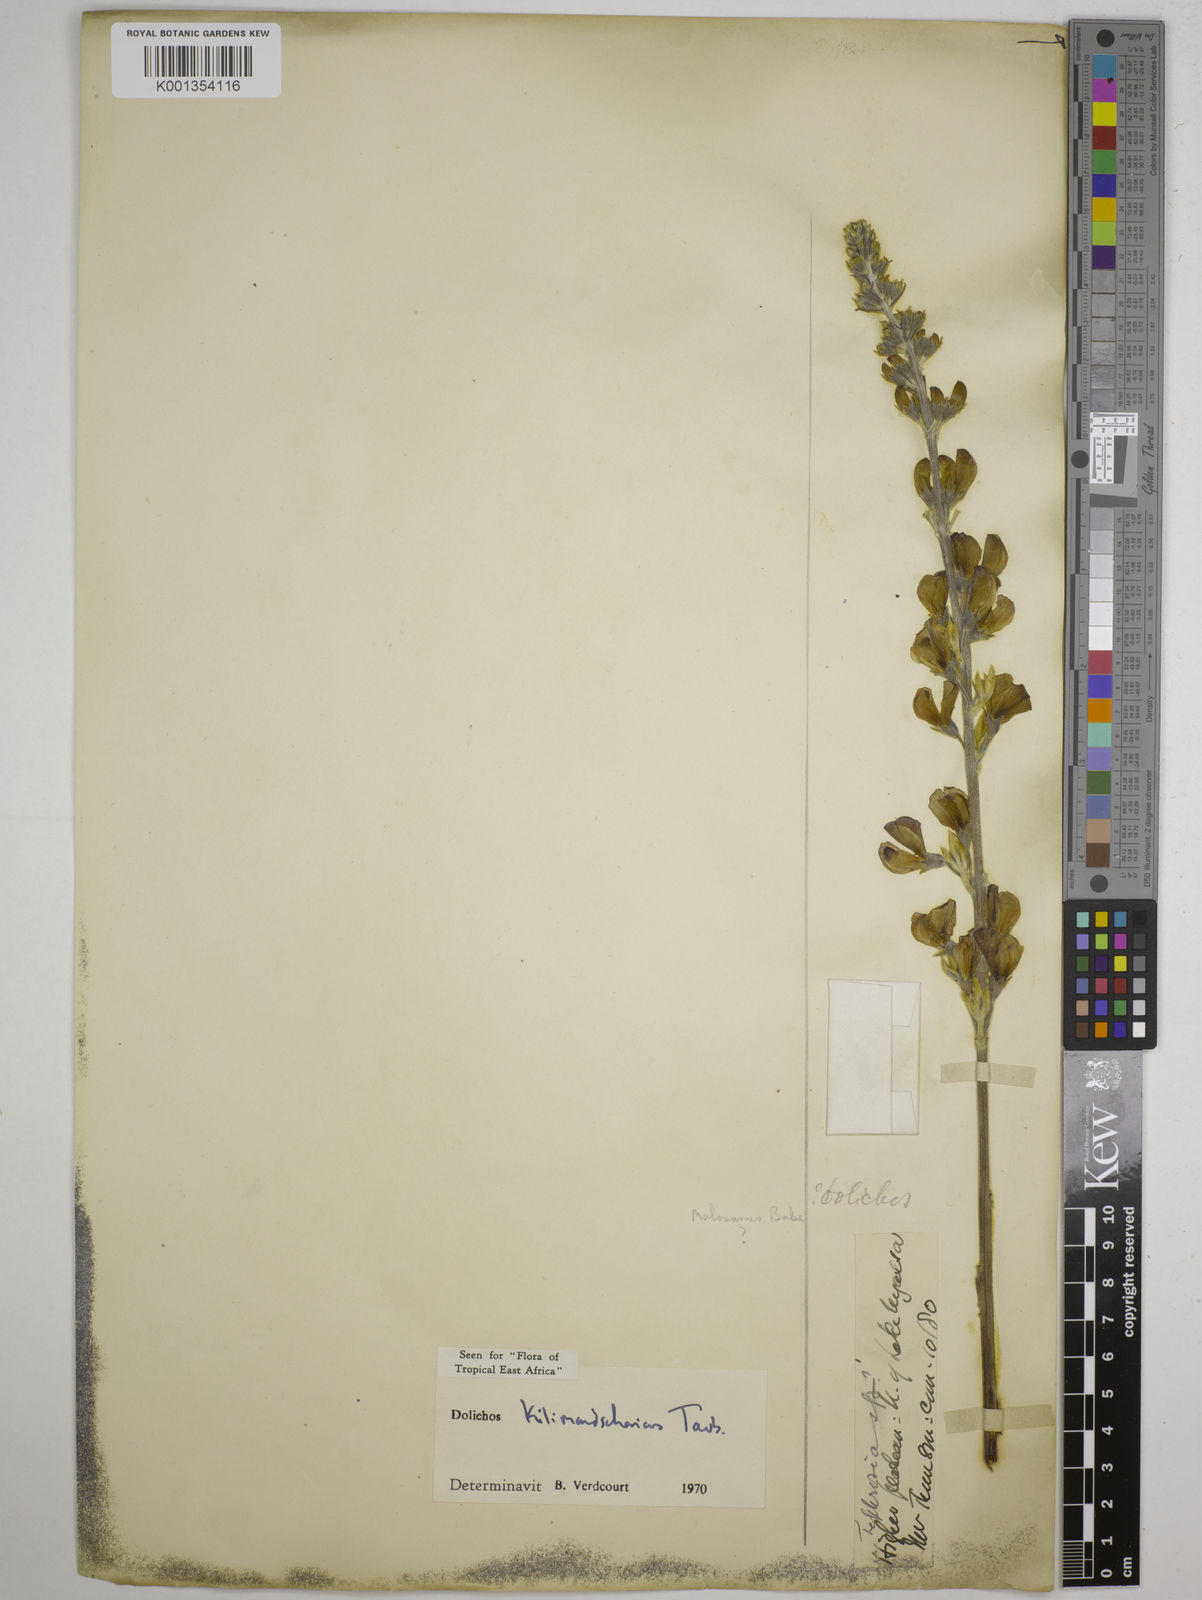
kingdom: Plantae
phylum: Tracheophyta
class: Magnoliopsida
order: Fabales
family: Fabaceae
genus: Dolichos
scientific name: Dolichos kilimandscharicus
